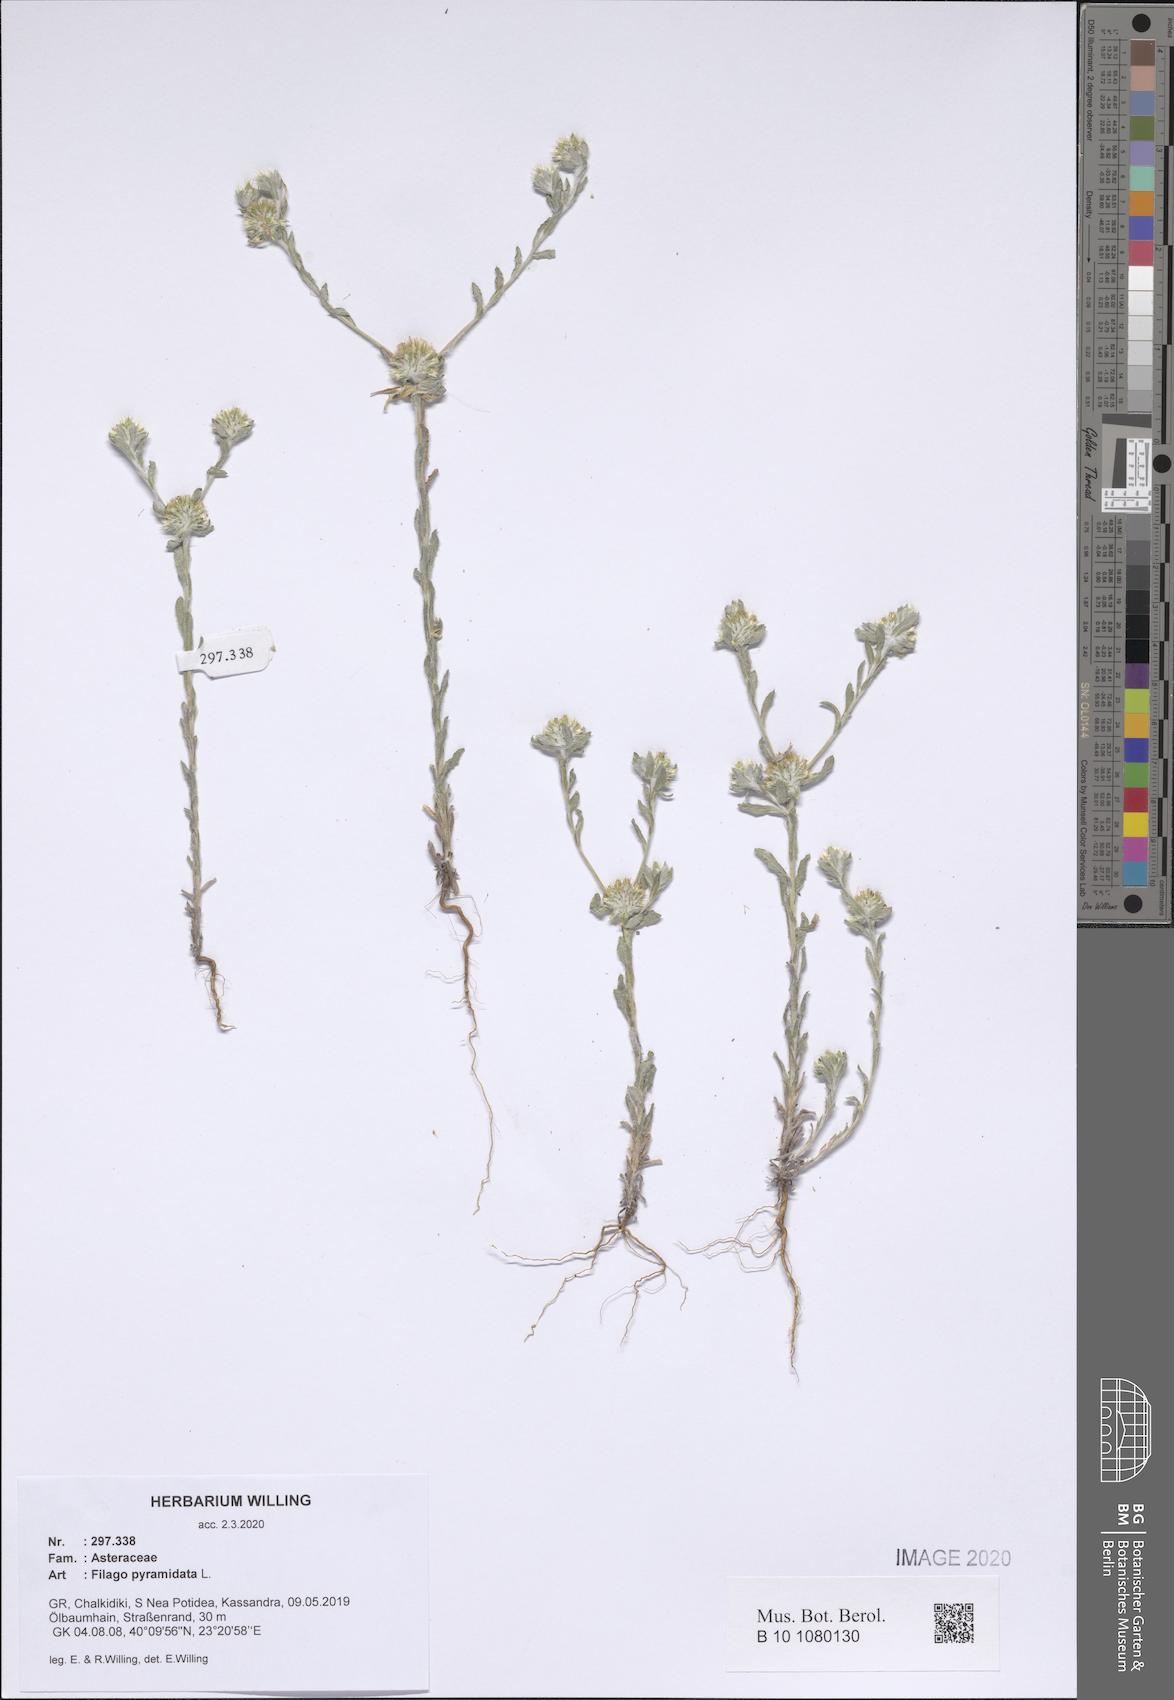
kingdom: Plantae
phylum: Tracheophyta
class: Magnoliopsida
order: Asterales
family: Asteraceae
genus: Filago
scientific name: Filago pyramidata
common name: Broad-leaved cudweed
